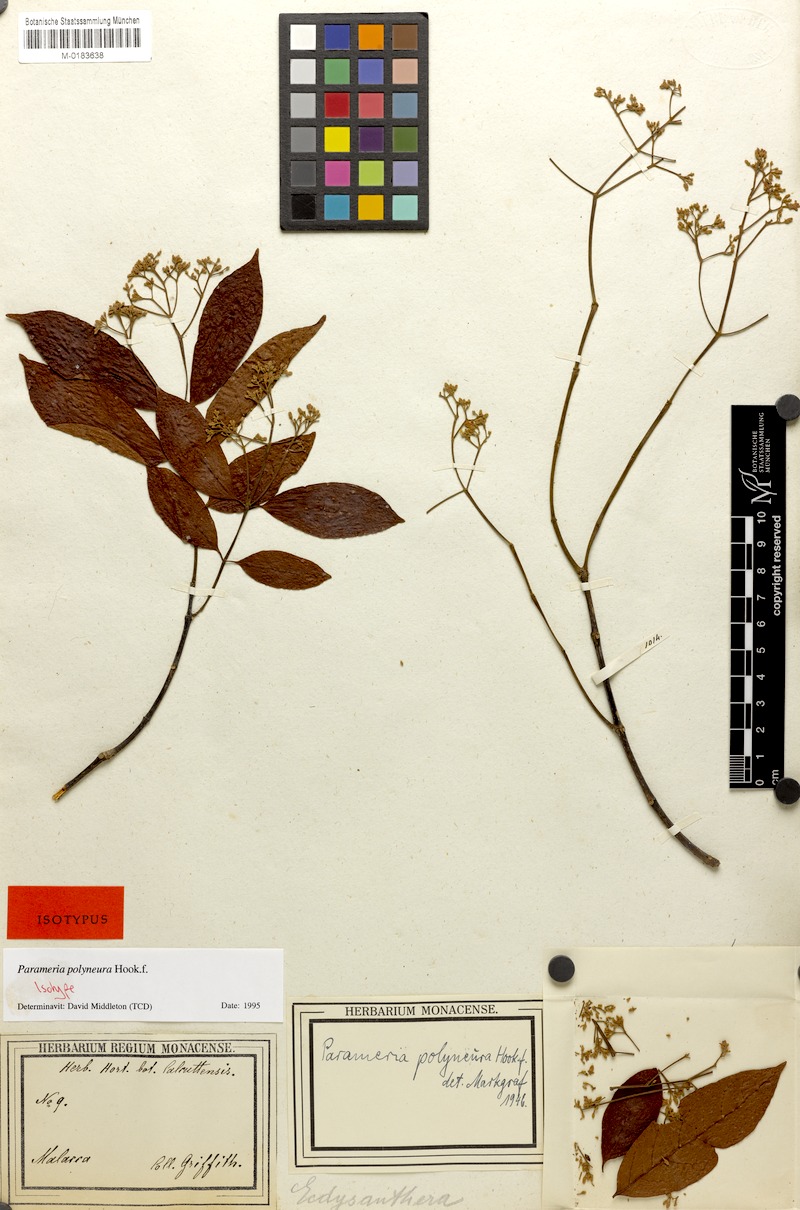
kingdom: Plantae
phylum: Tracheophyta
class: Magnoliopsida
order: Gentianales
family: Apocynaceae
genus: Urceola
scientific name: Urceola polyneura
